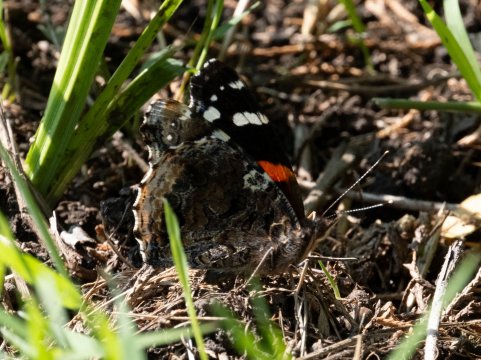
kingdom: Animalia
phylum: Arthropoda
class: Insecta
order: Lepidoptera
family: Nymphalidae
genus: Vanessa
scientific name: Vanessa atalanta
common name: Red Admiral
